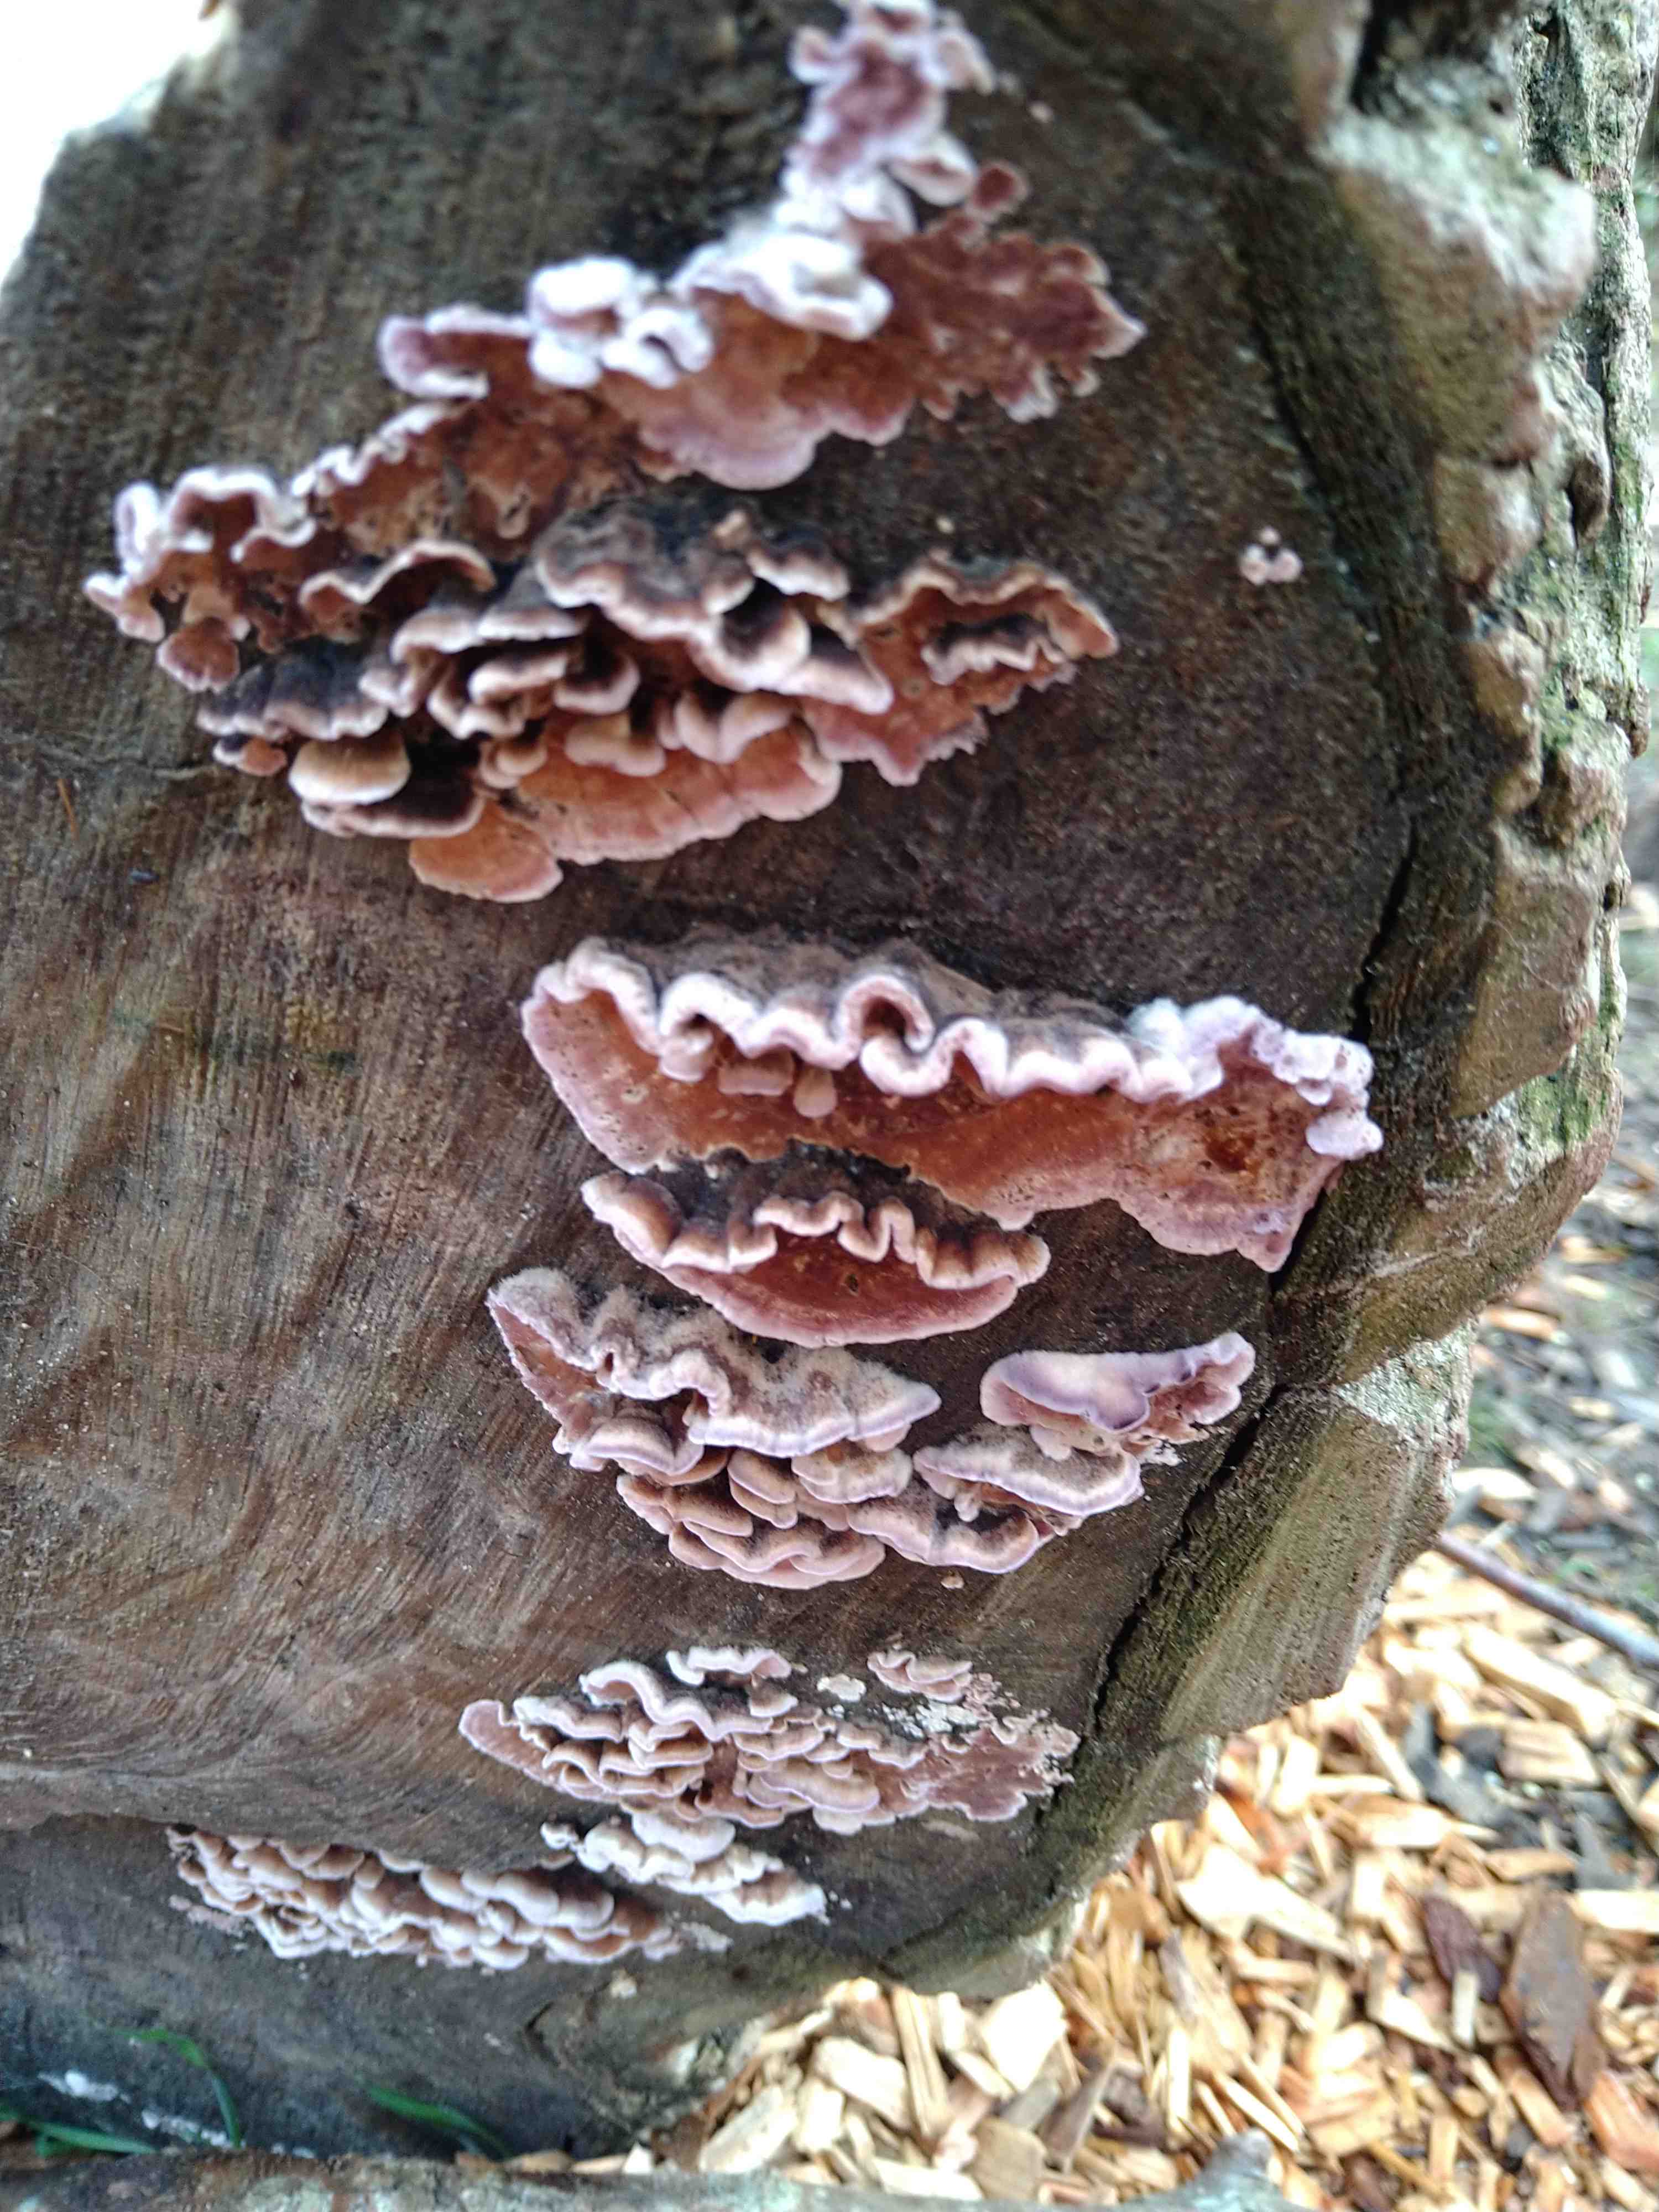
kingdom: Fungi
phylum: Basidiomycota
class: Agaricomycetes
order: Agaricales
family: Cyphellaceae
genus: Chondrostereum
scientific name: Chondrostereum purpureum
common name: purpurlædersvamp
